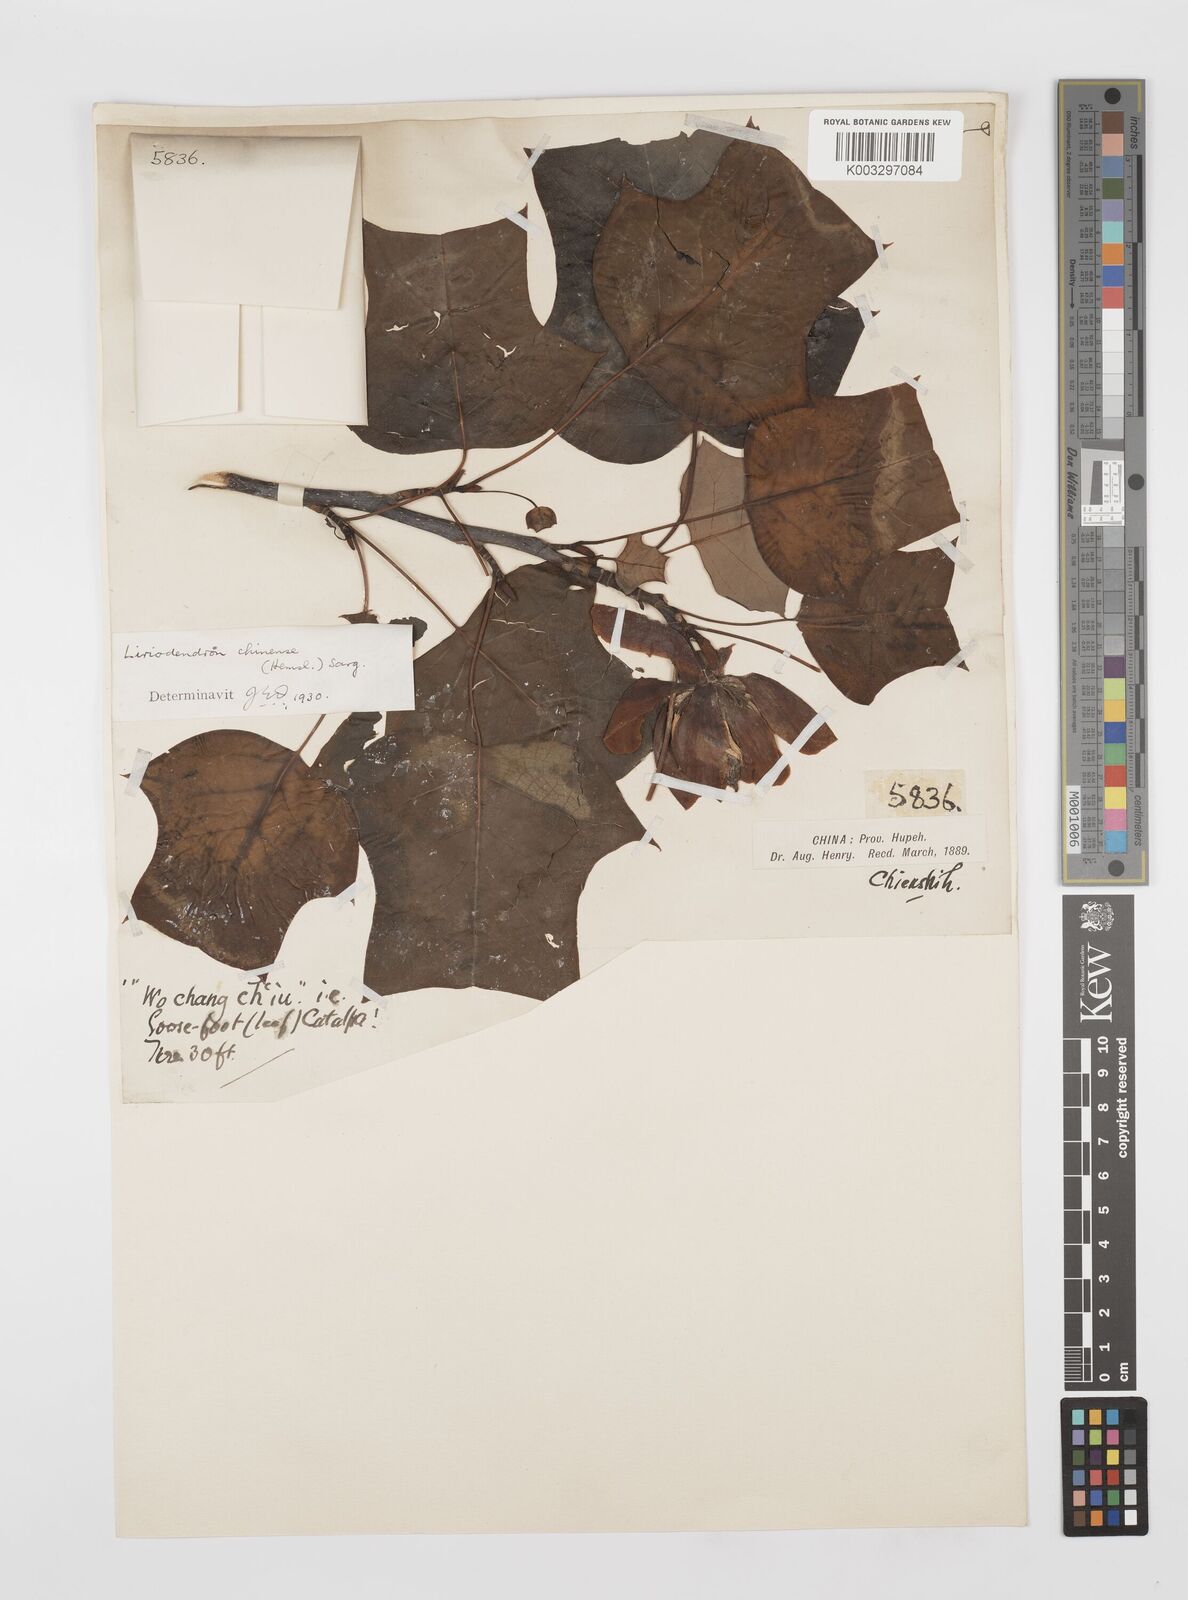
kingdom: Plantae
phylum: Tracheophyta
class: Magnoliopsida
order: Magnoliales
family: Magnoliaceae
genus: Liriodendron
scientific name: Liriodendron chinense
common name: Chinese tuliptree
